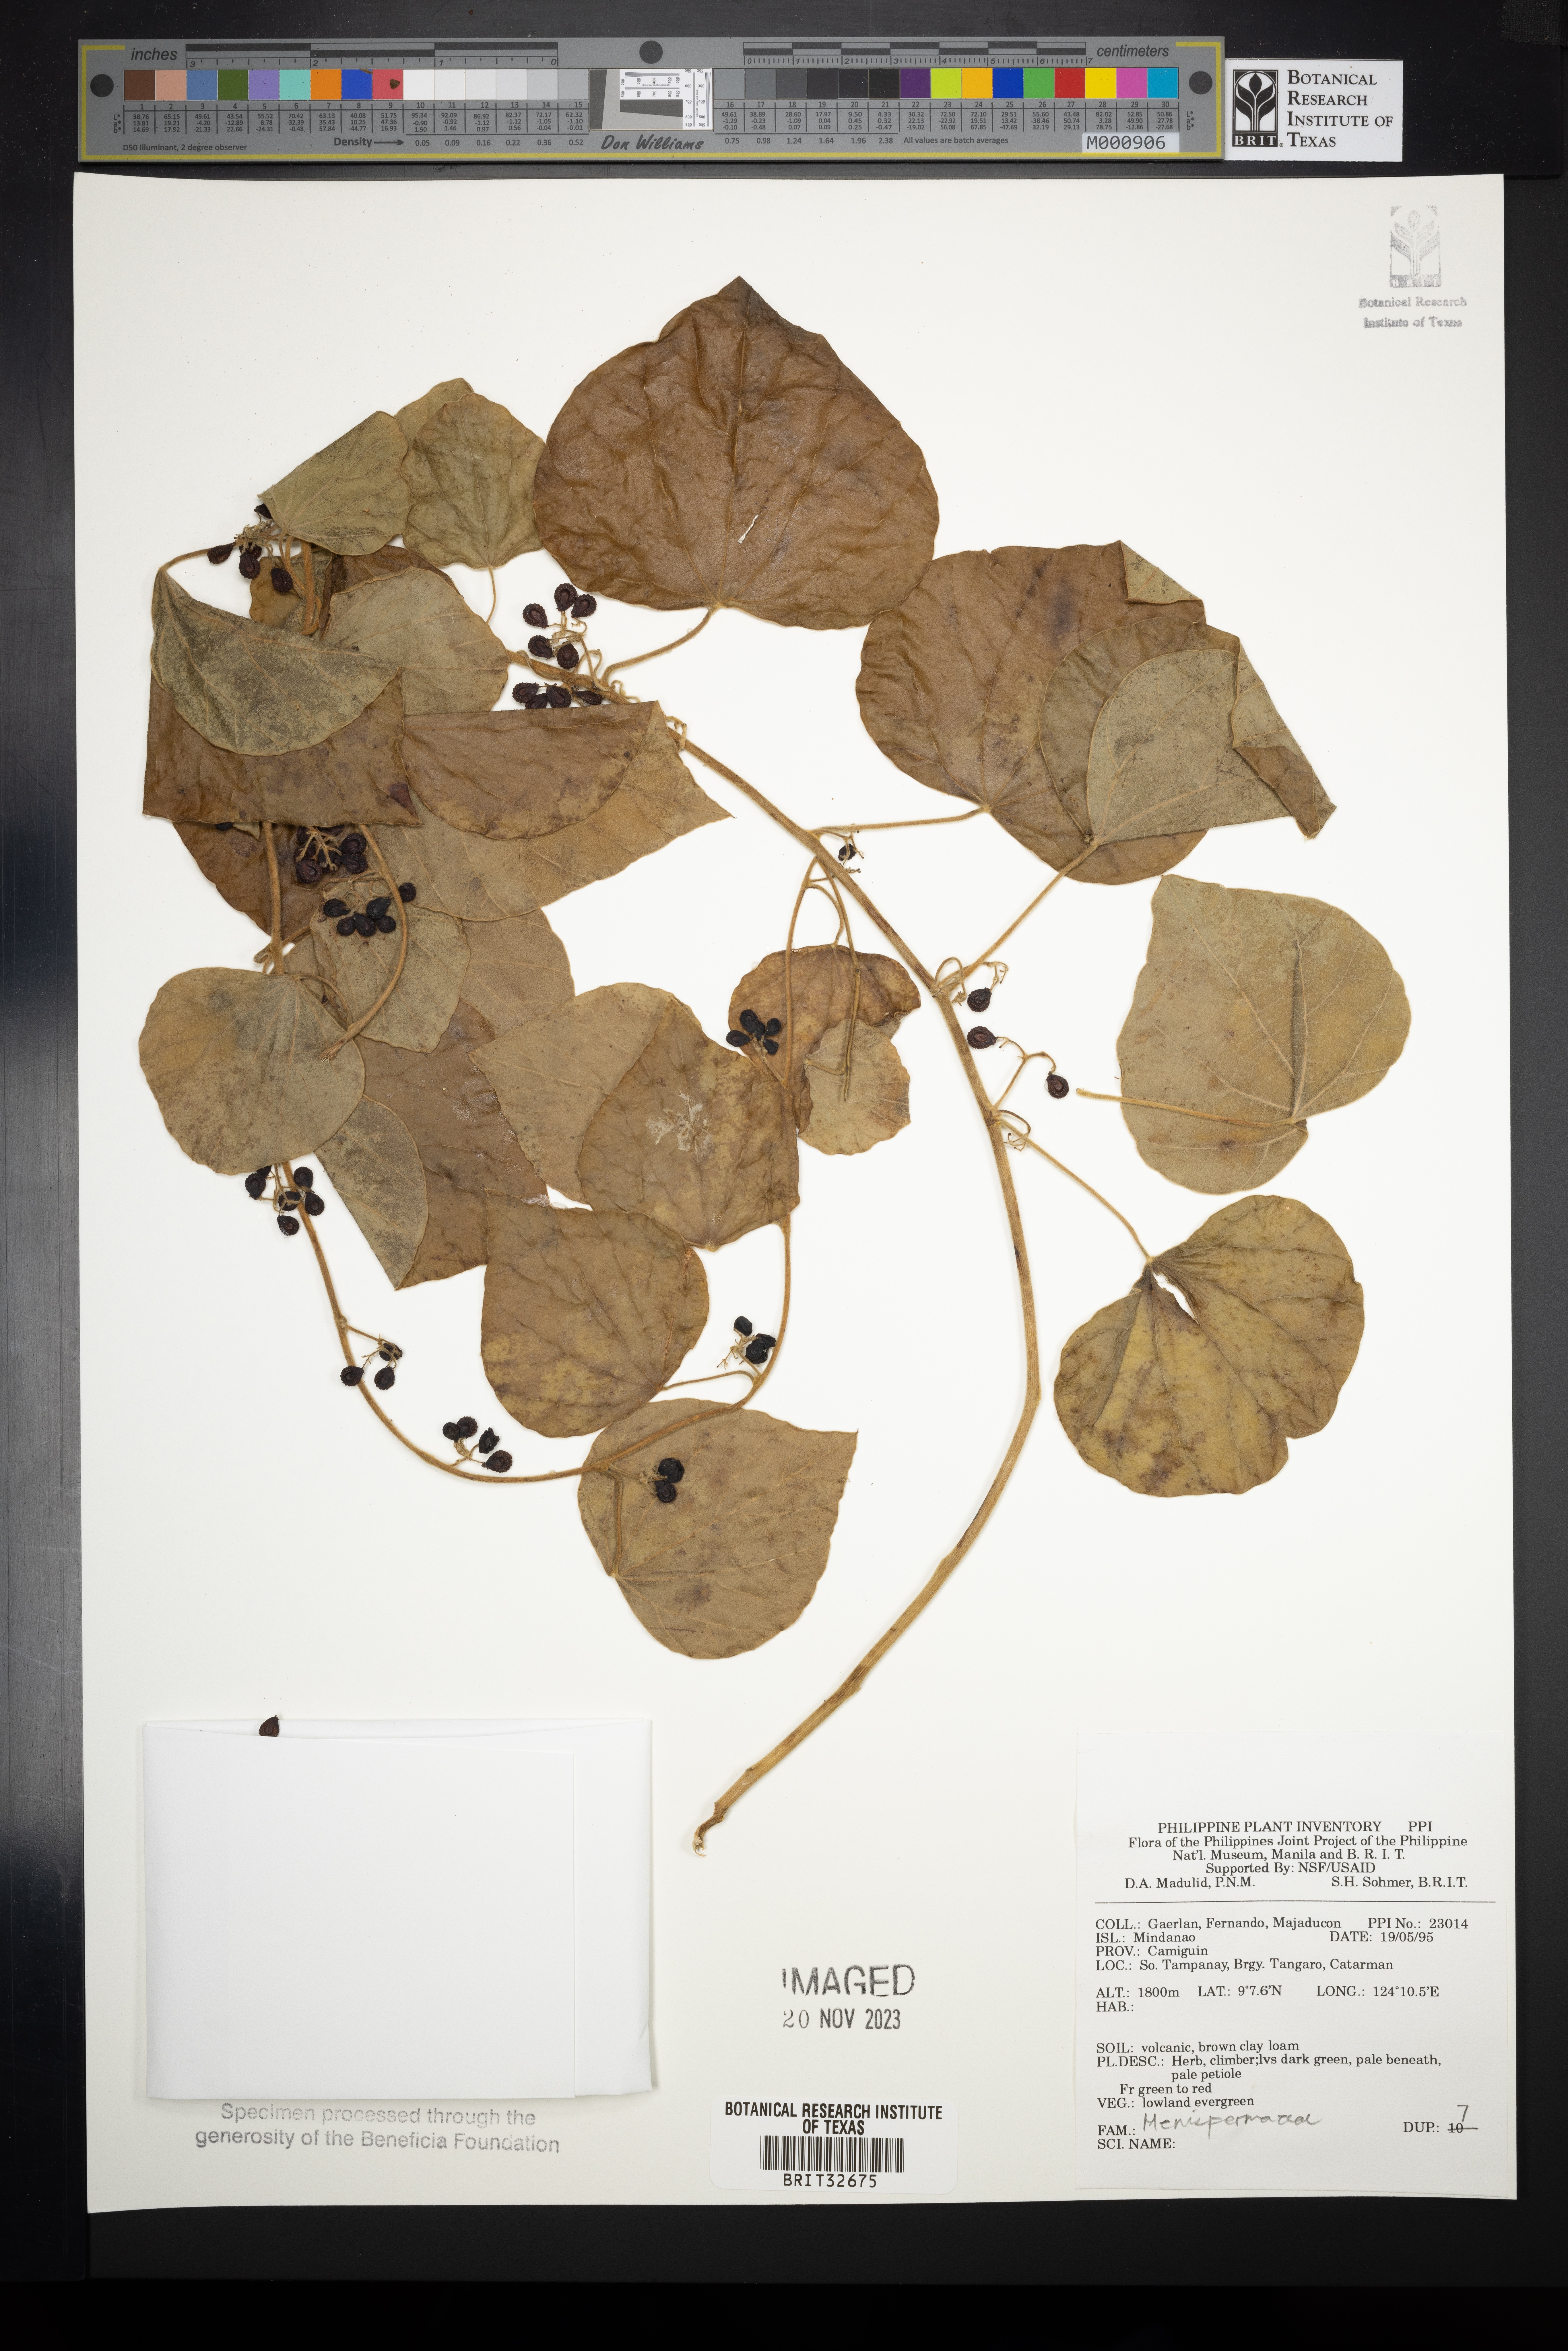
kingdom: Plantae
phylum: Tracheophyta
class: Magnoliopsida
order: Ranunculales
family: Menispermaceae
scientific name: Menispermaceae
